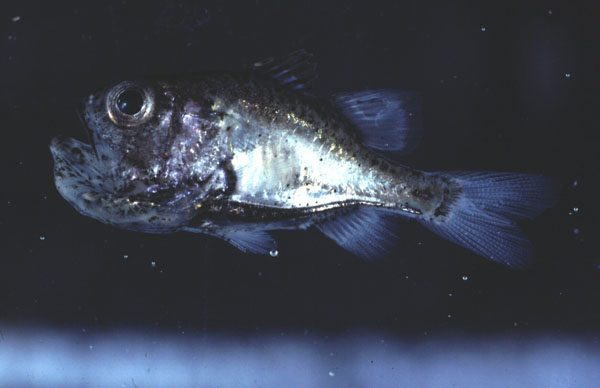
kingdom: Animalia
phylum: Chordata
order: Perciformes
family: Apogonidae
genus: Siphamia
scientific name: Siphamia majimai
